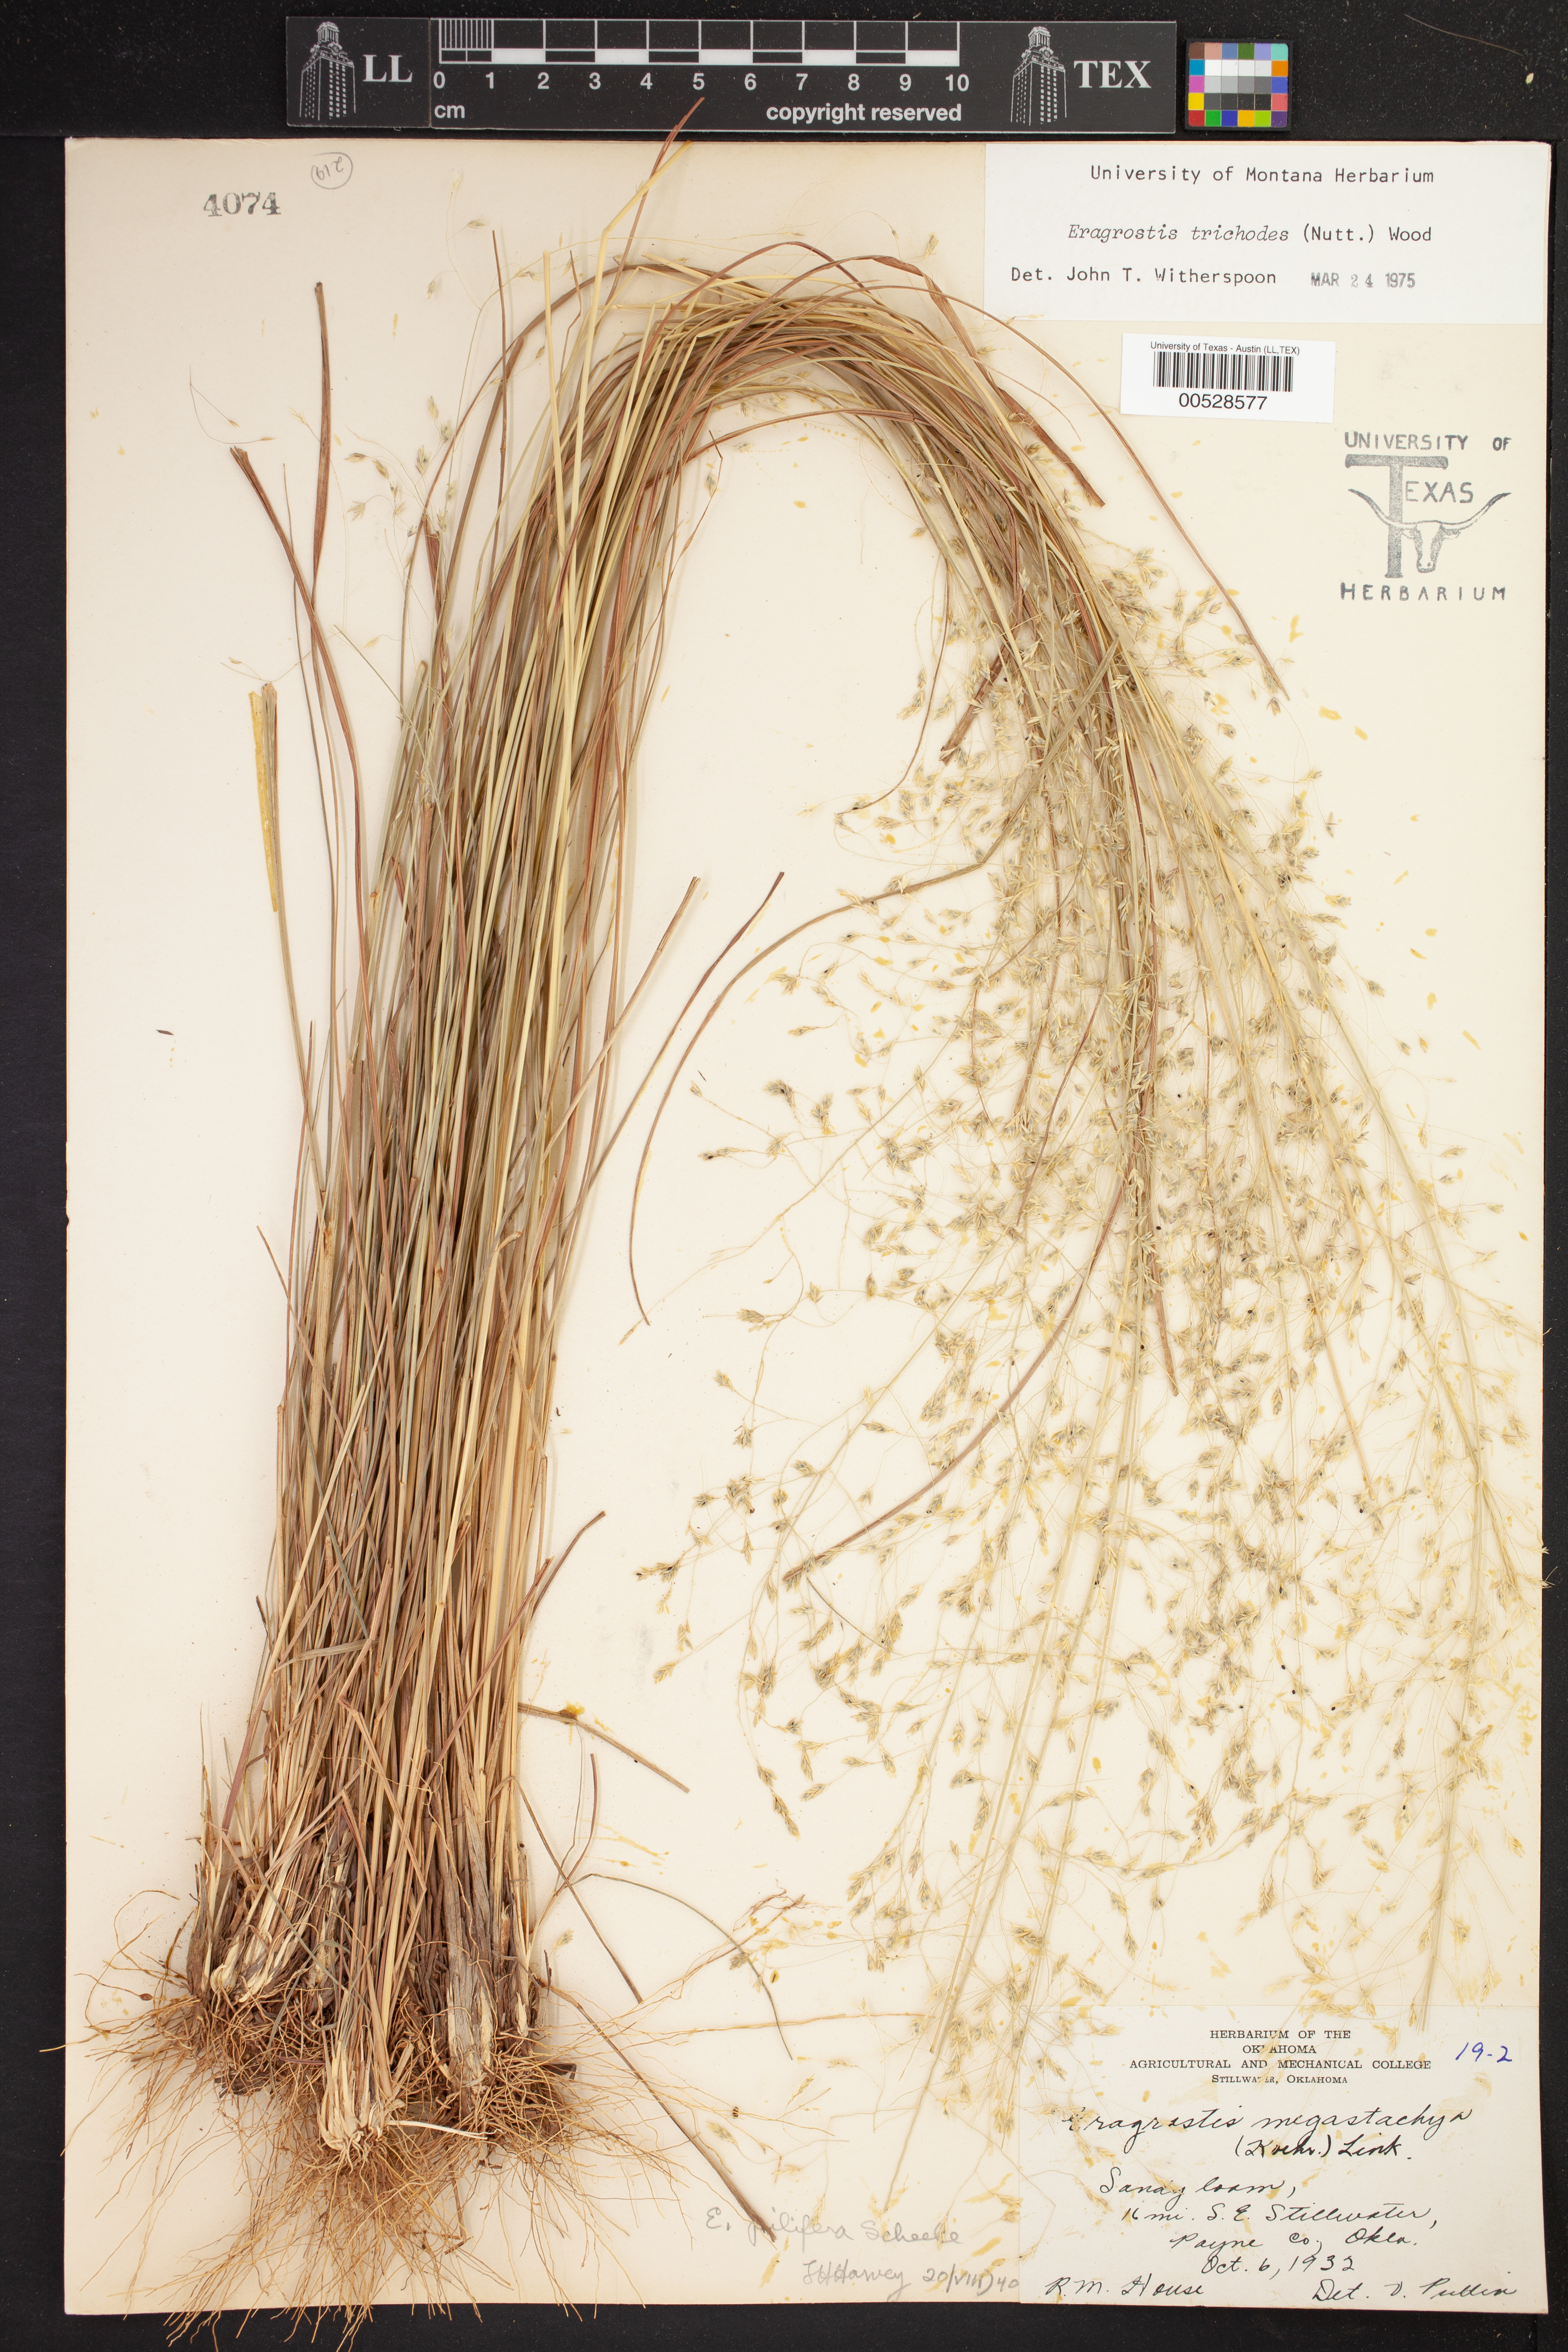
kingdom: Plantae
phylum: Tracheophyta
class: Liliopsida
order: Poales
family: Poaceae
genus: Eragrostis
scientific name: Eragrostis trichodes
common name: Sand love grass
